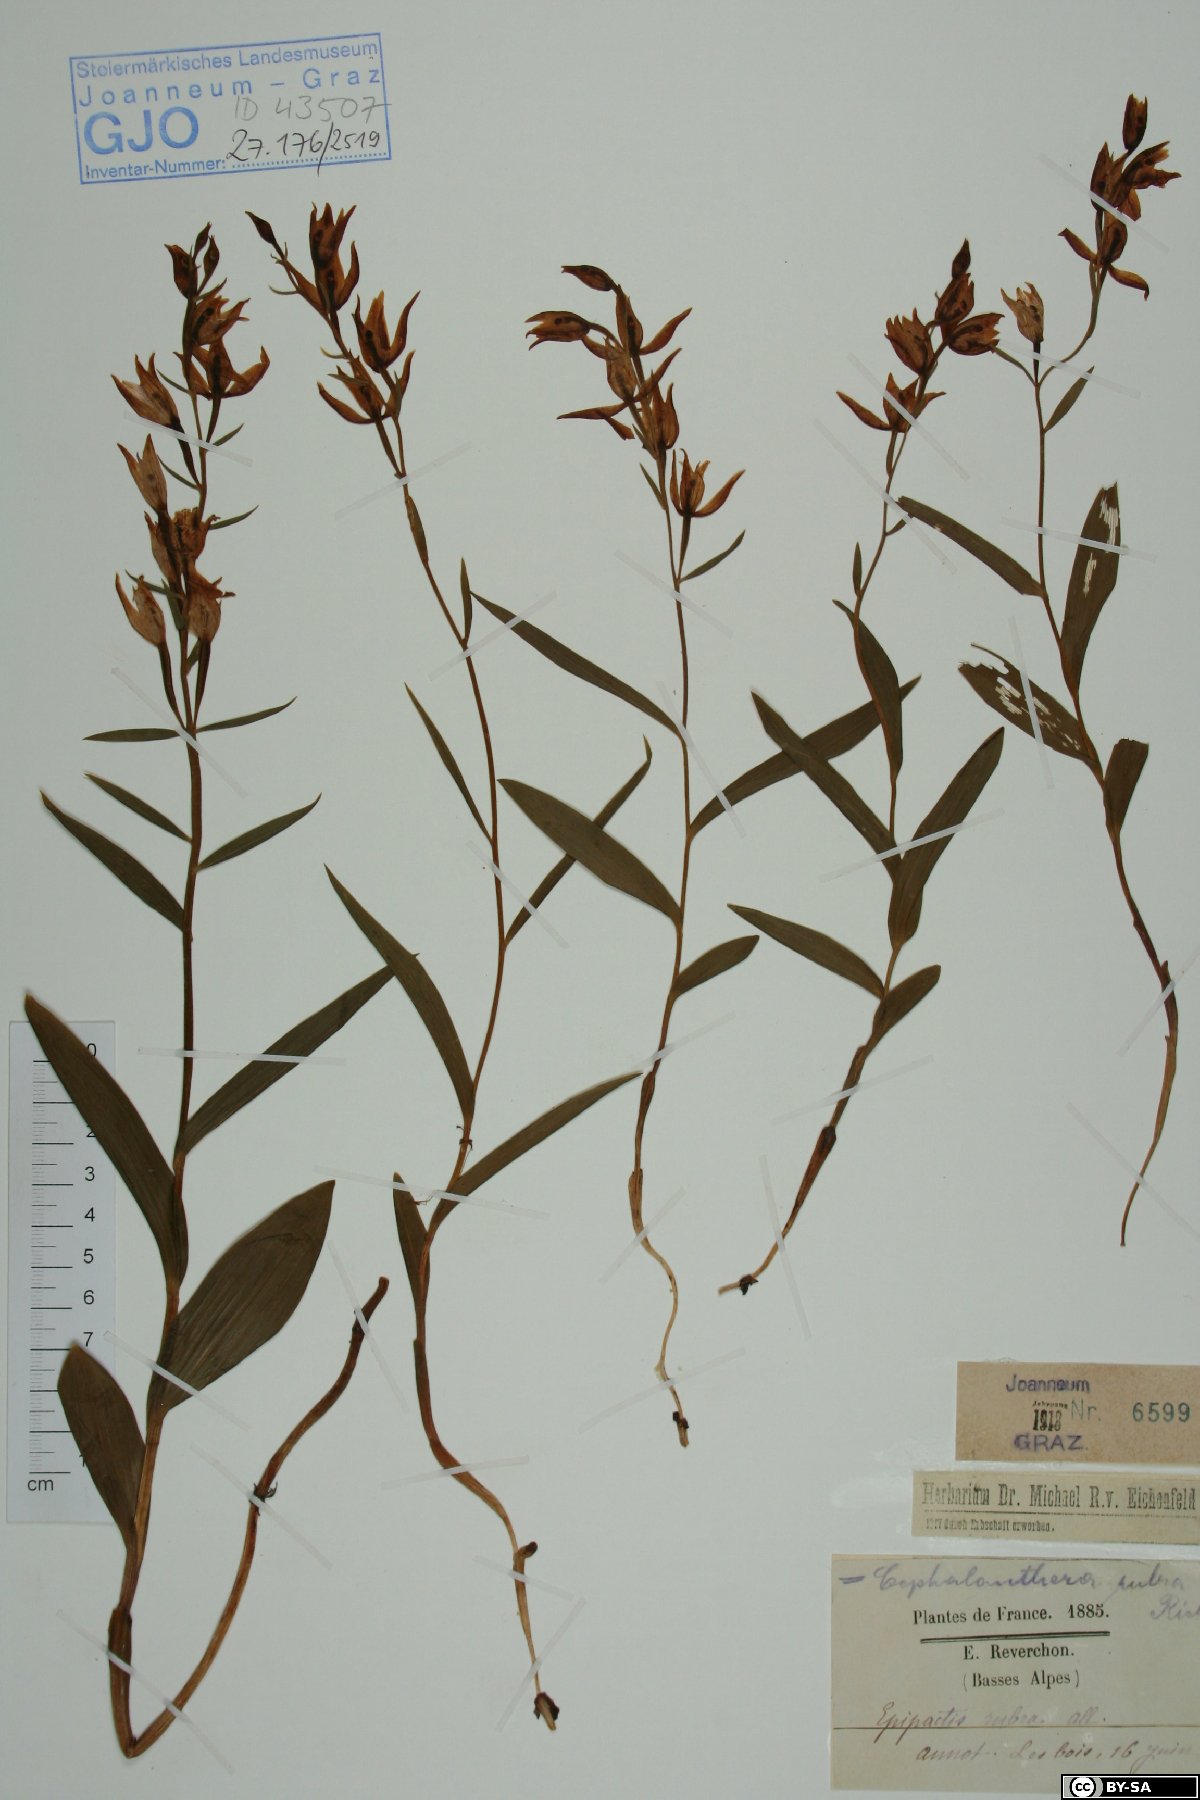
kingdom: Plantae
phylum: Tracheophyta
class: Liliopsida
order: Asparagales
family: Orchidaceae
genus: Cephalanthera
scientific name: Cephalanthera rubra
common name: Red helleborine
